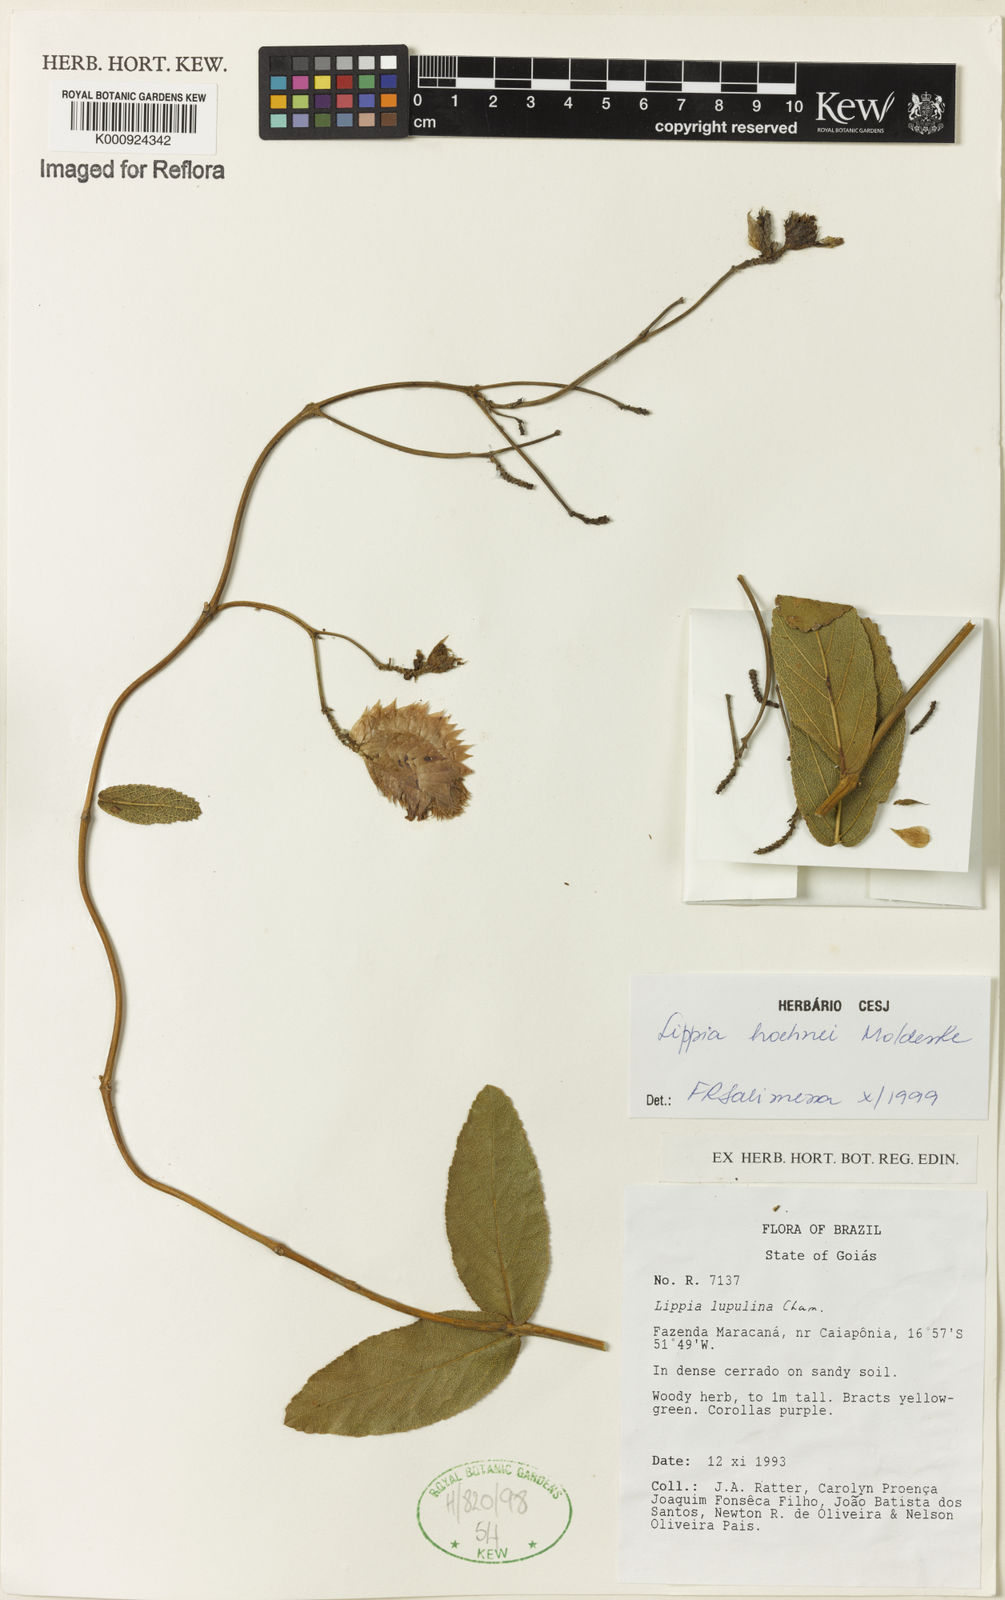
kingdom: Plantae
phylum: Tracheophyta
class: Magnoliopsida
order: Lamiales
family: Verbenaceae
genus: Lippia
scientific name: Lippia hoehnei
